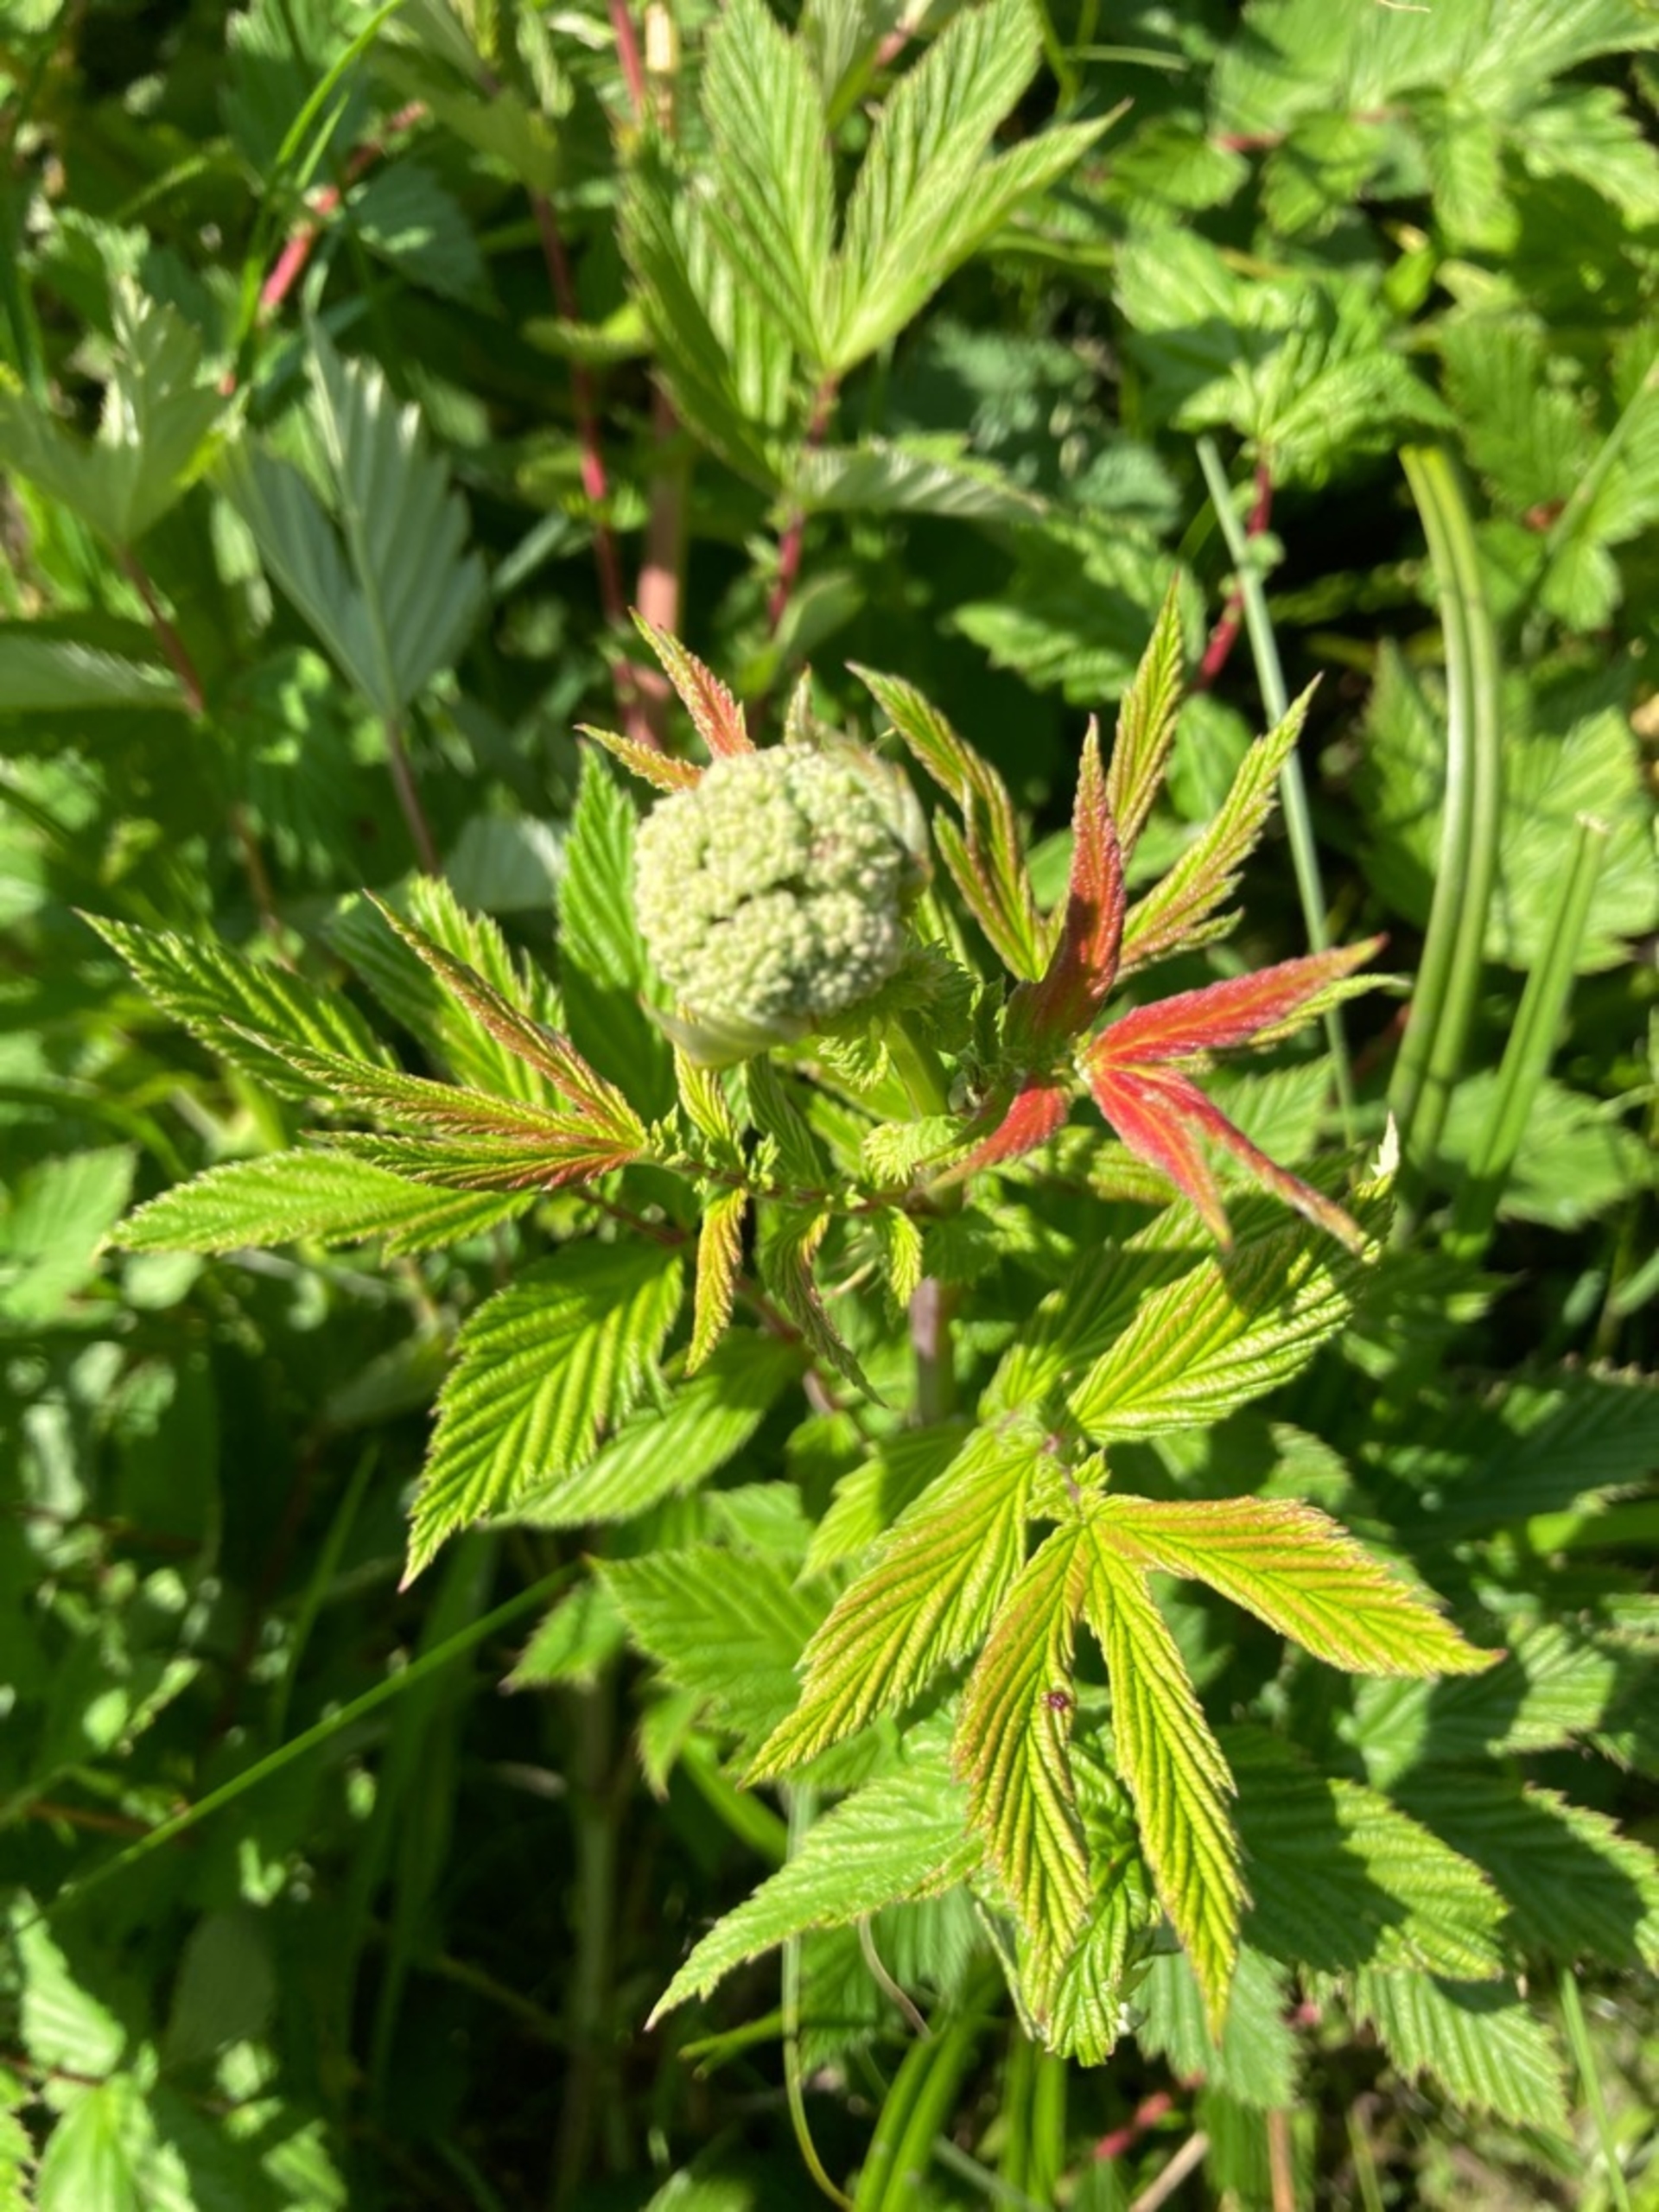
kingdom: Plantae
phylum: Tracheophyta
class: Magnoliopsida
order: Rosales
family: Rosaceae
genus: Filipendula
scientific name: Filipendula ulmaria
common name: Almindelig mjødurt
